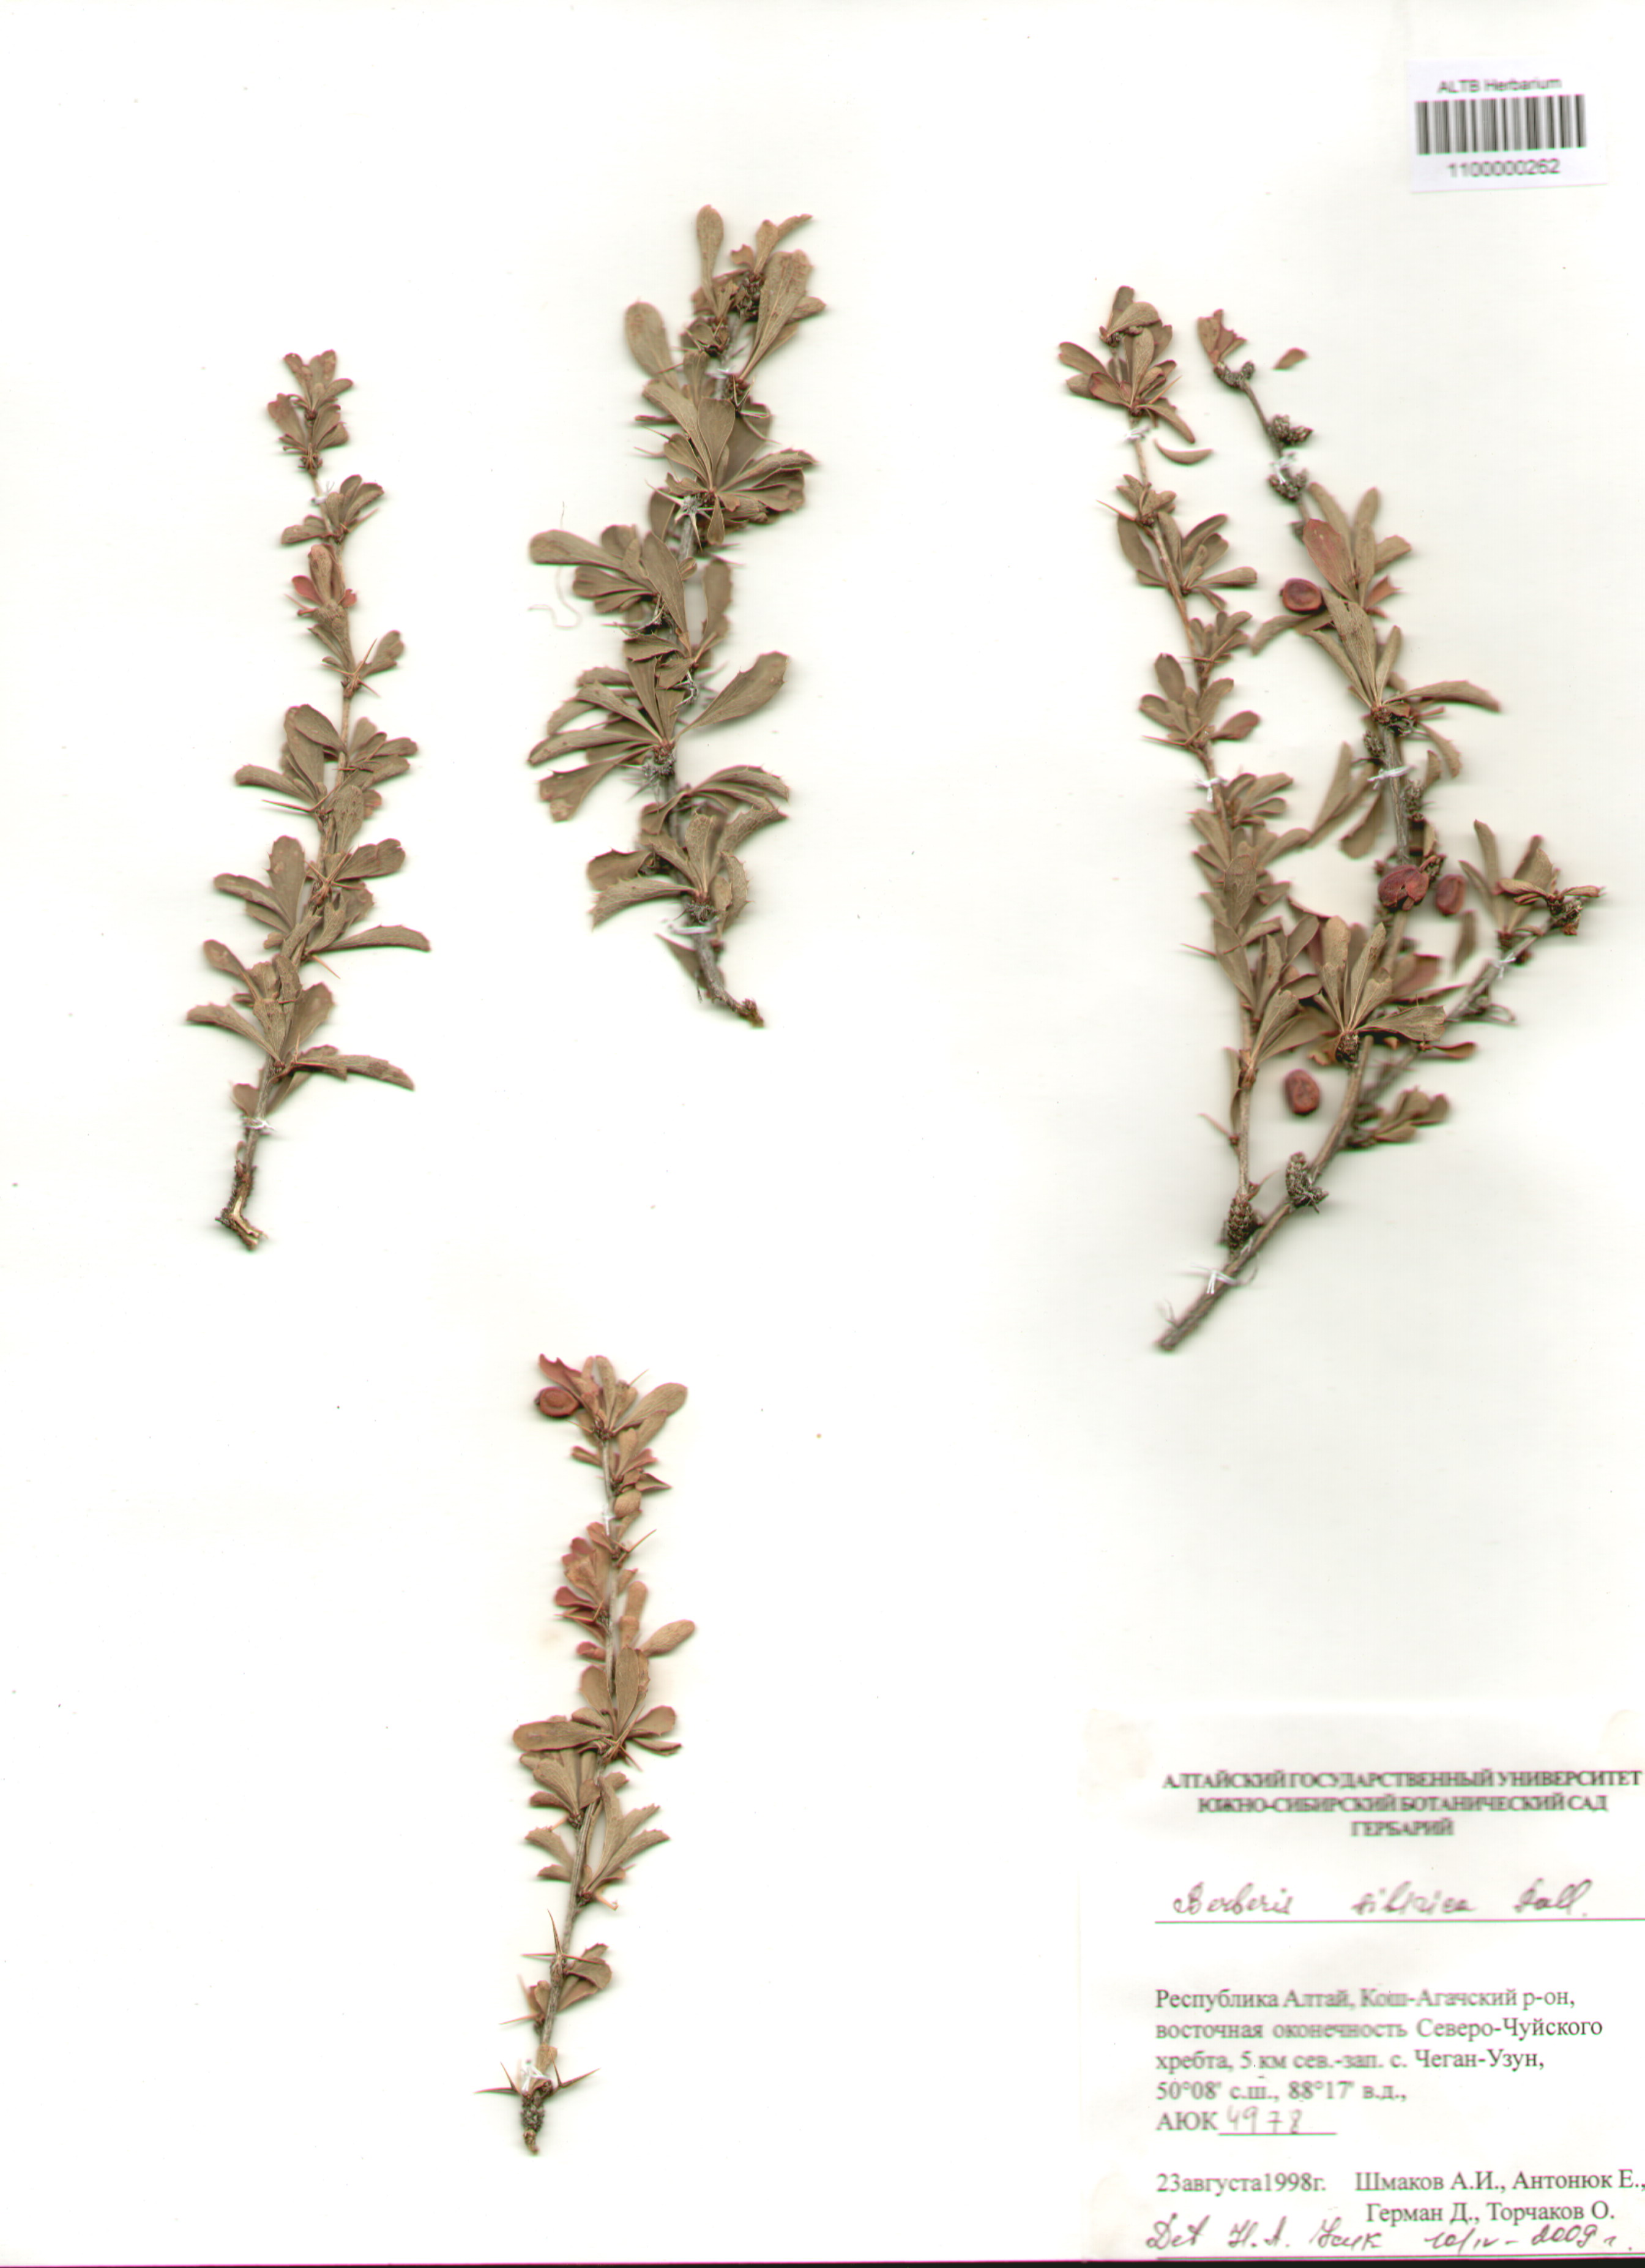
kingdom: Plantae
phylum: Tracheophyta
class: Magnoliopsida
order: Ranunculales
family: Berberidaceae
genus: Berberis
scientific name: Berberis sibirica
